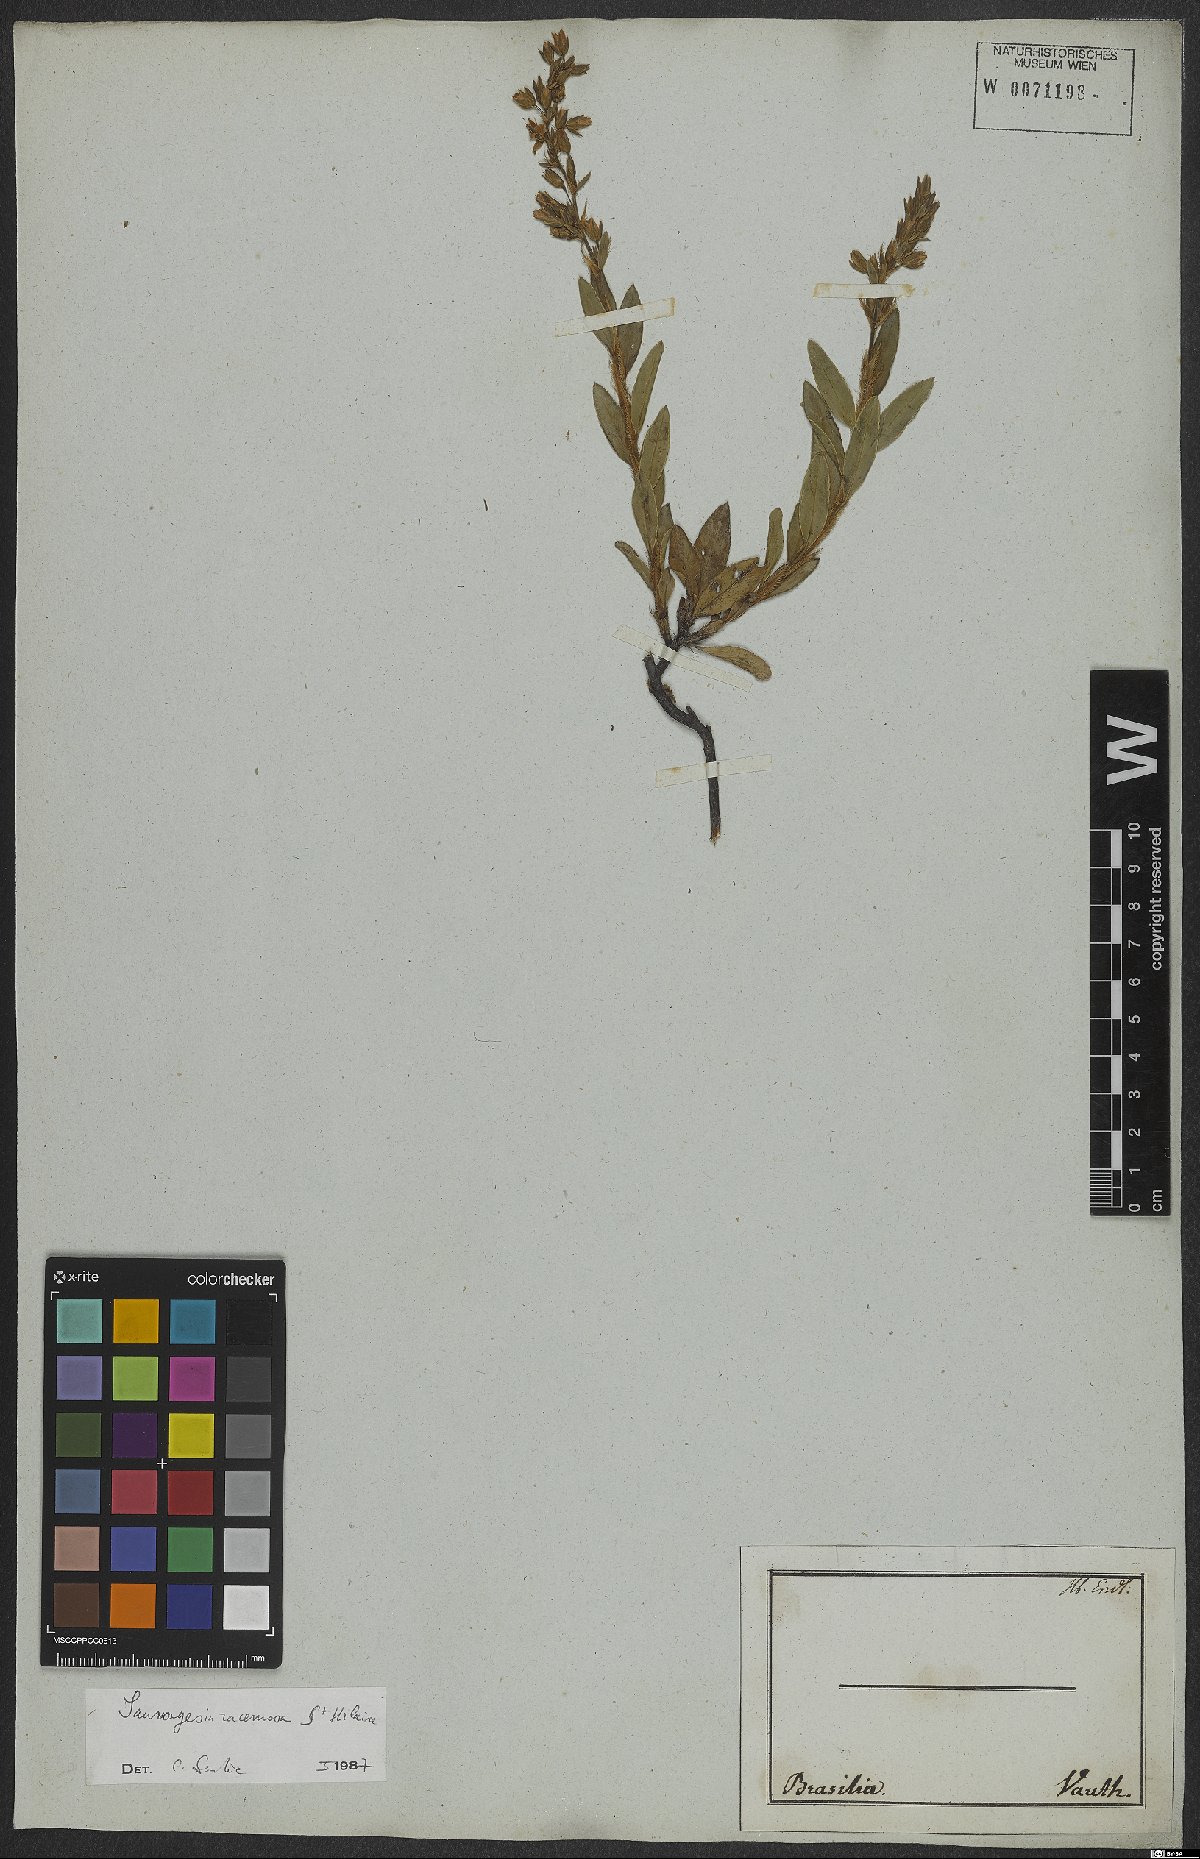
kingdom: Plantae
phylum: Tracheophyta
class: Magnoliopsida
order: Malpighiales
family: Ochnaceae
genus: Sauvagesia
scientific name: Sauvagesia racemosa
